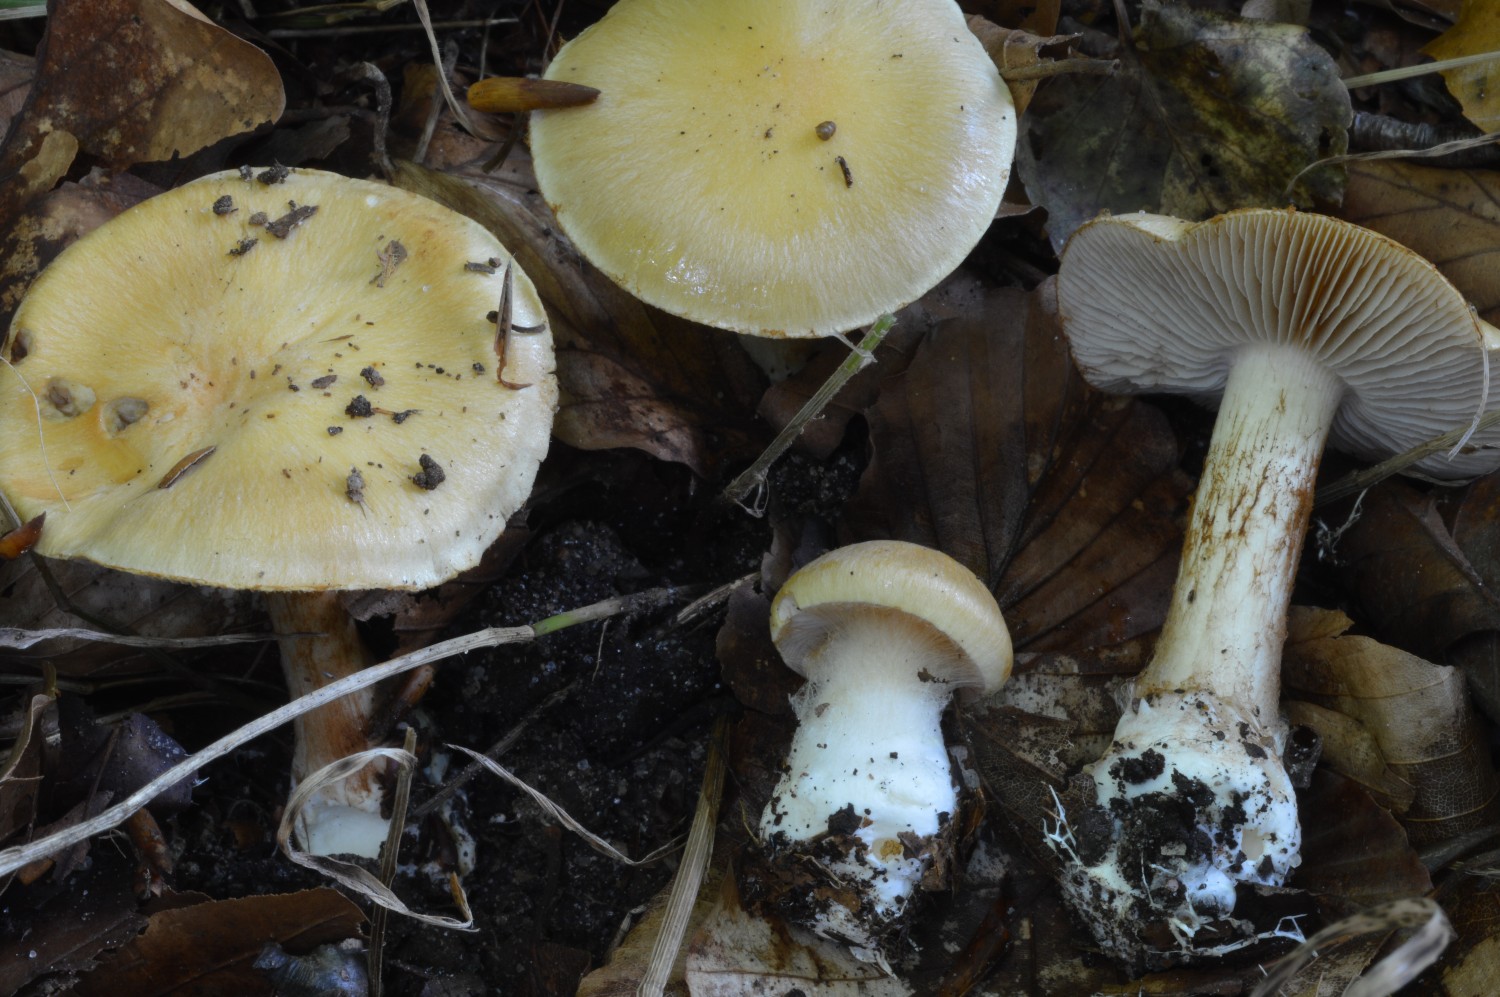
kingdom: Fungi
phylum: Basidiomycota
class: Agaricomycetes
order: Agaricales
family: Cortinariaceae
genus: Cortinarius
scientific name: Cortinarius gracilior
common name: gracil slørhat
